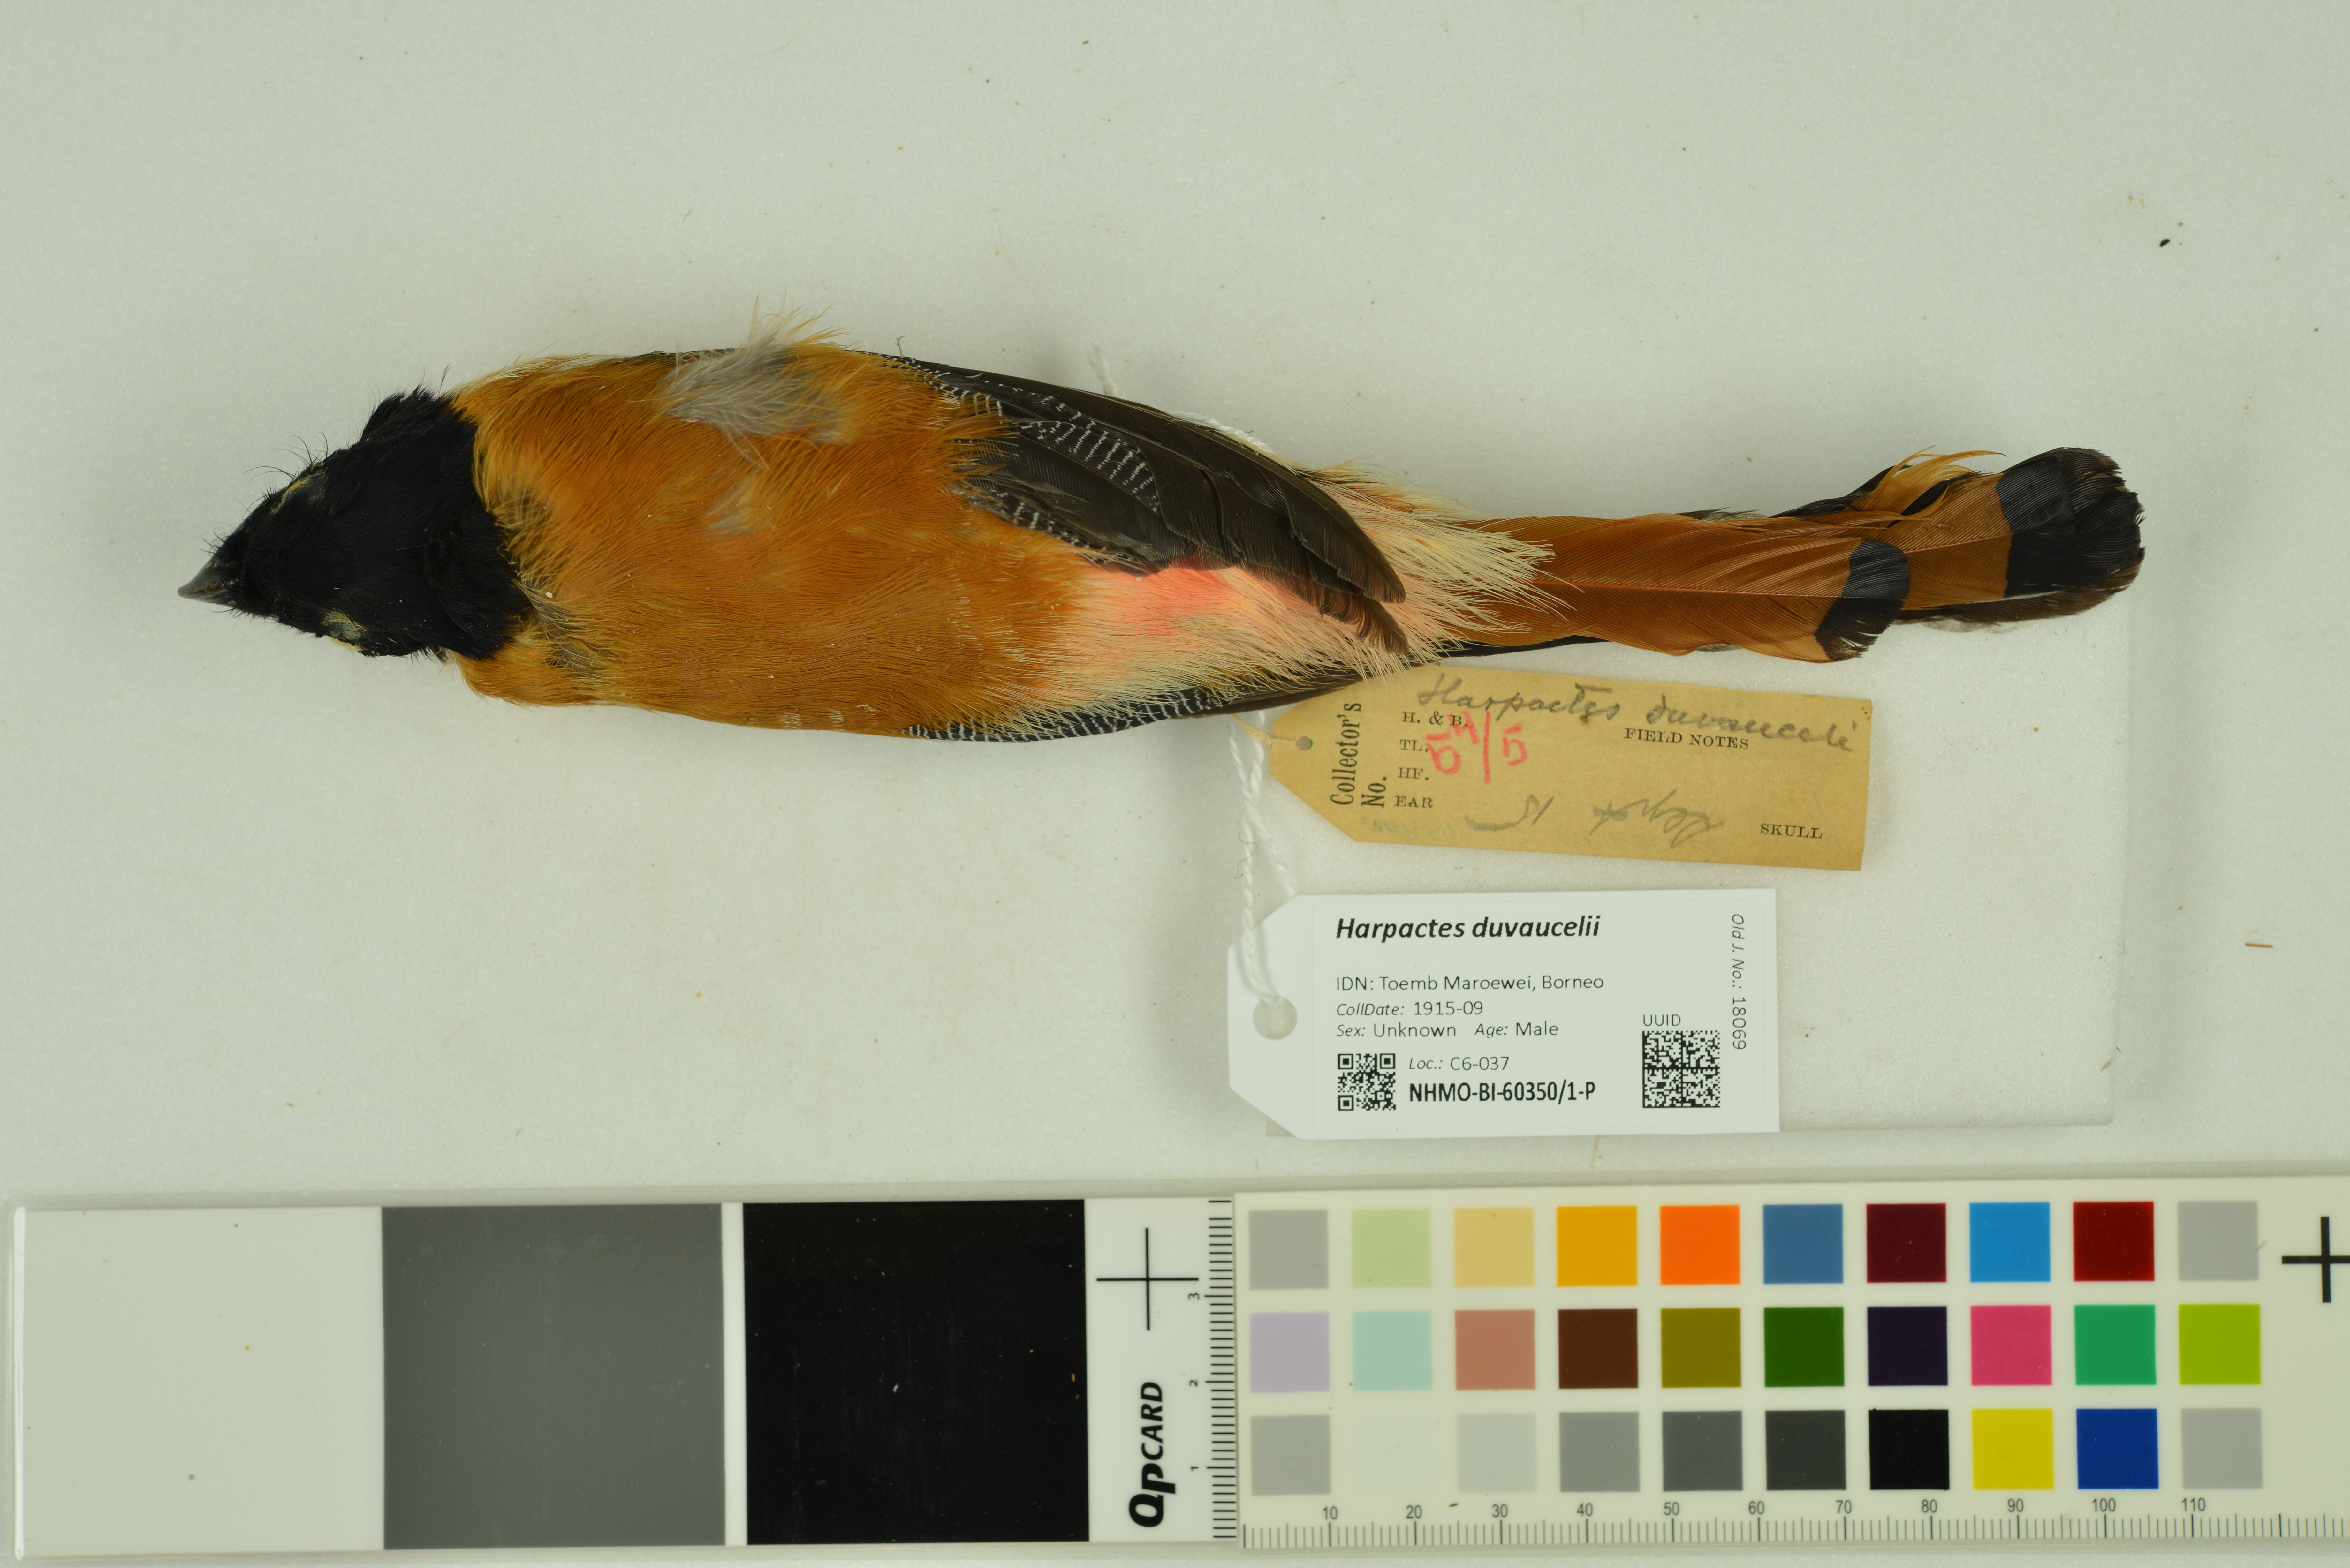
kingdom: Animalia
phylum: Chordata
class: Aves
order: Trogoniformes
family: Trogonidae
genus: Harpactes
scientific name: Harpactes duvaucelii
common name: Scarlet-rumped trogon
